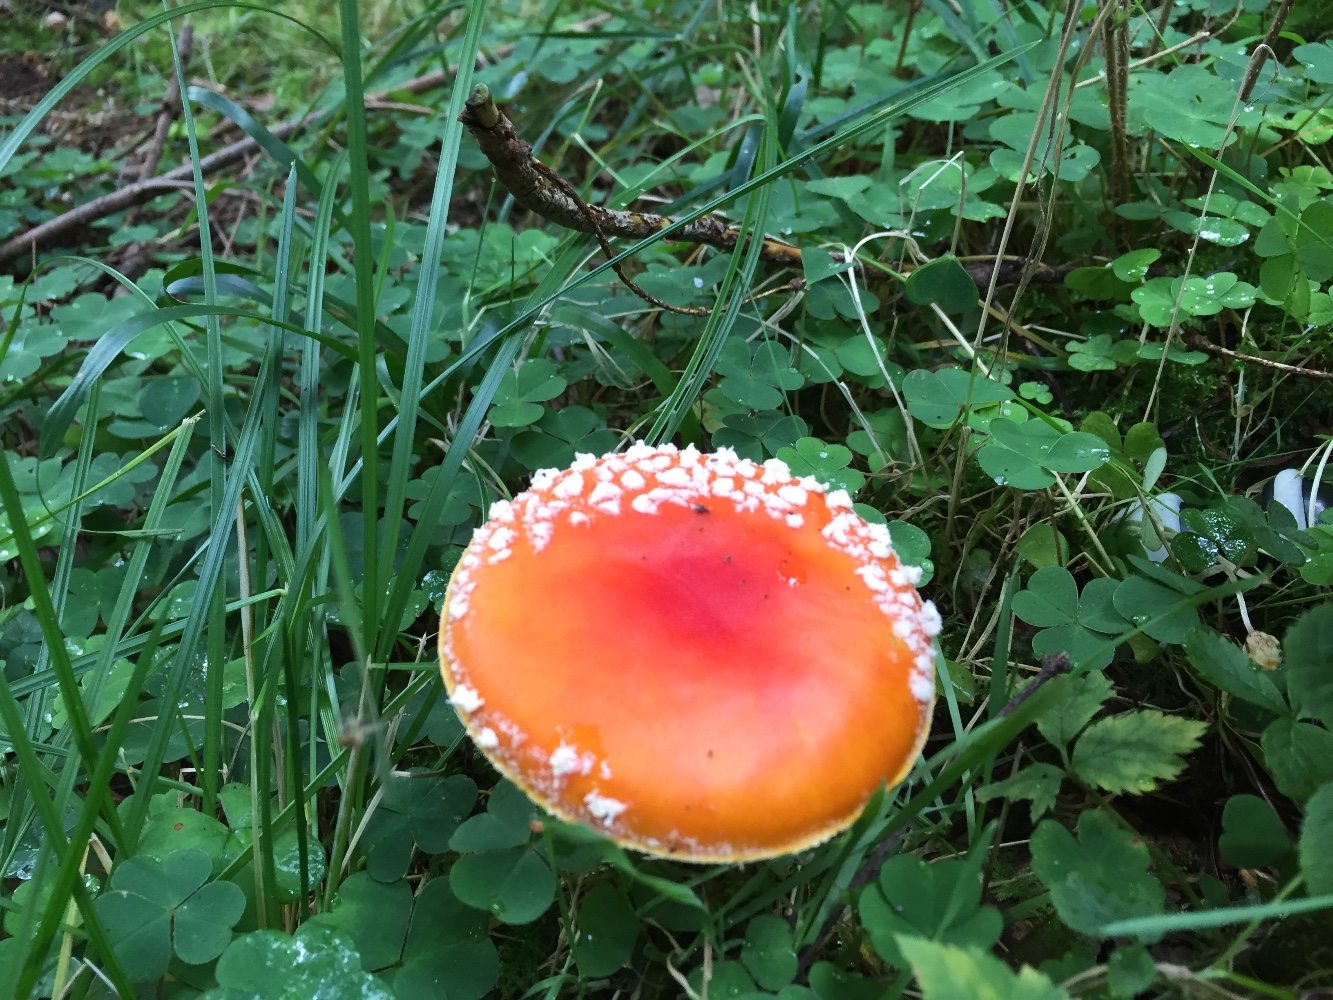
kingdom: Fungi
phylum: Basidiomycota
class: Agaricomycetes
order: Agaricales
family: Amanitaceae
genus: Amanita
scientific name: Amanita muscaria
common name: rød fluesvamp
